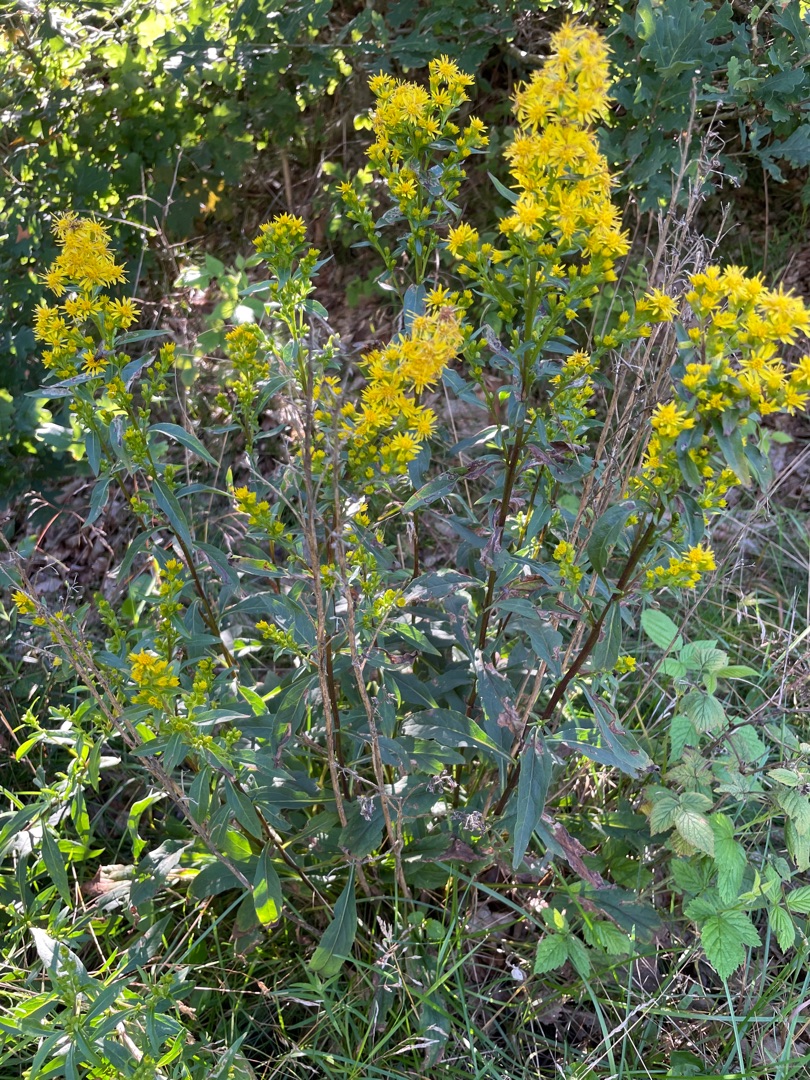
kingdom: Plantae
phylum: Tracheophyta
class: Magnoliopsida
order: Asterales
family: Asteraceae
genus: Solidago
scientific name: Solidago virgaurea
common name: Almindelig gyldenris
